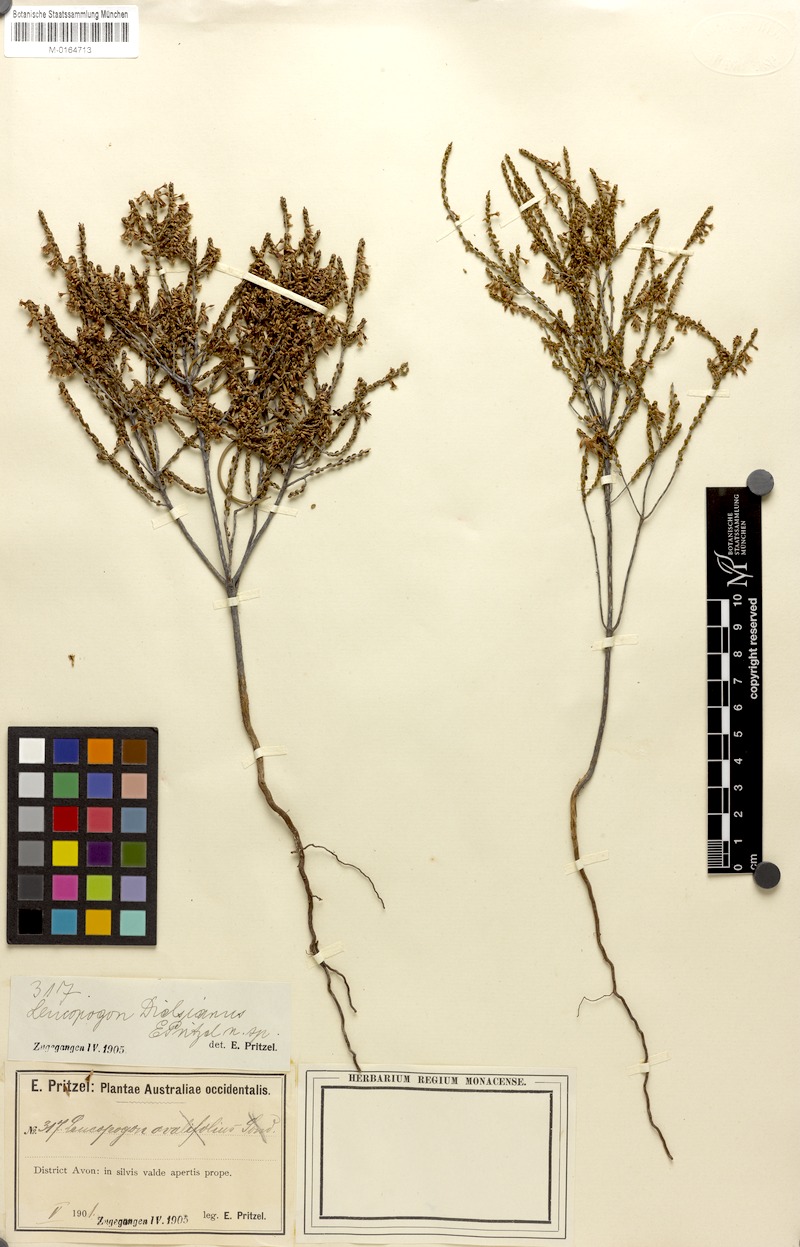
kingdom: Plantae
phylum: Tracheophyta
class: Magnoliopsida
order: Ericales
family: Ericaceae
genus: Styphelia
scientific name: Styphelia dielsiana
